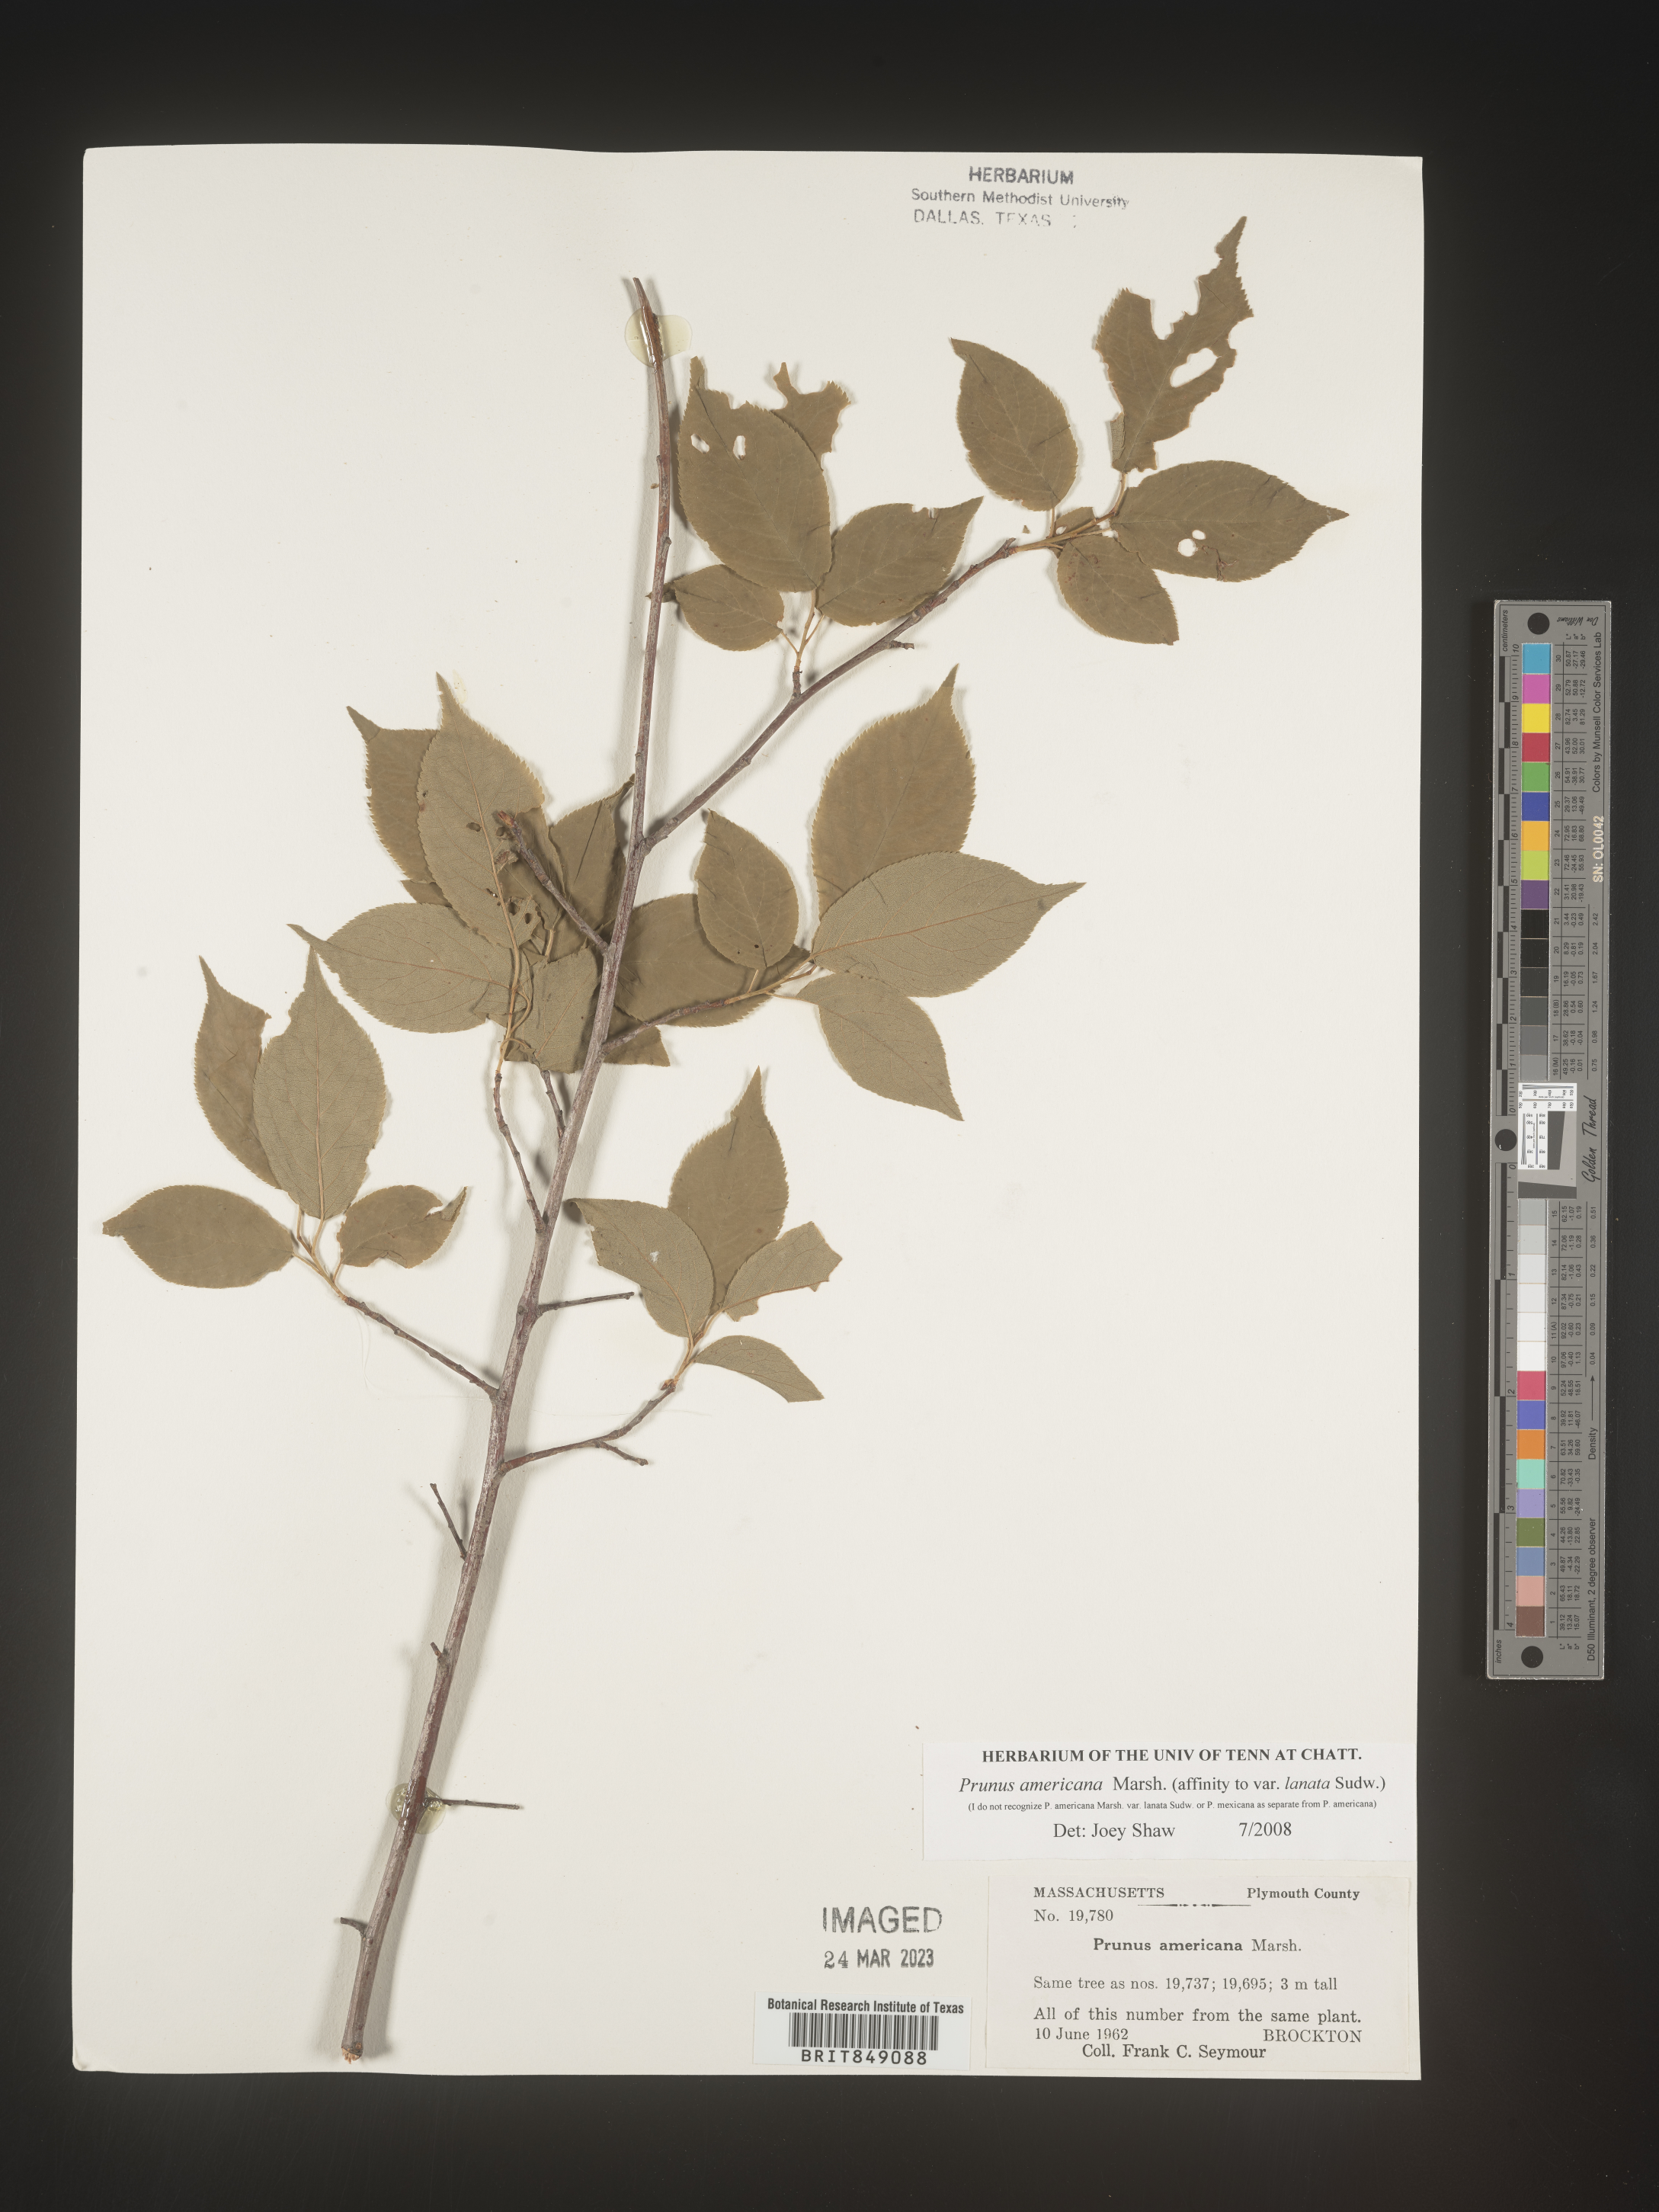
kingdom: Plantae
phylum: Tracheophyta
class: Magnoliopsida
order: Rosales
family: Rosaceae
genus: Prunus
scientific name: Prunus americana
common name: American plum
